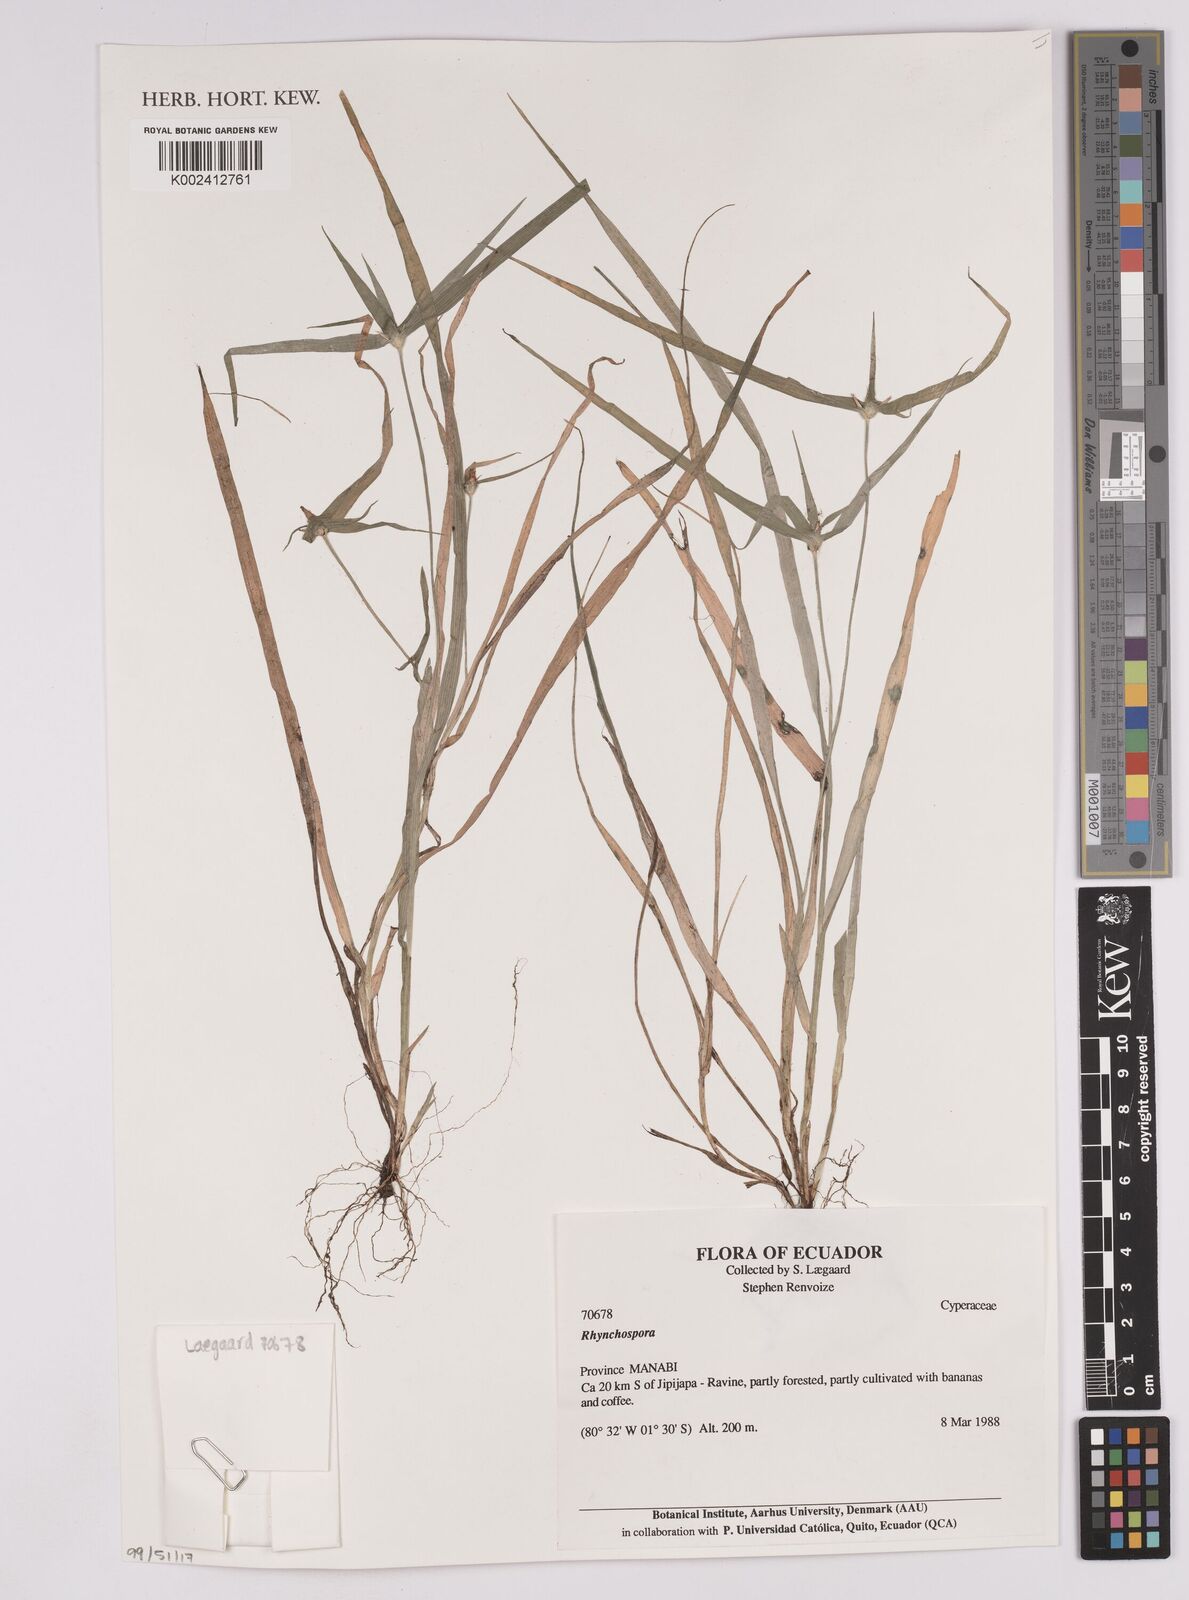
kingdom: Plantae
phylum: Tracheophyta
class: Liliopsida
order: Poales
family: Cyperaceae
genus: Rhynchospora
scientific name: Rhynchospora
